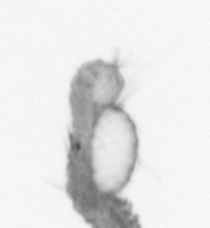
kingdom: Animalia
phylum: Annelida
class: Polychaeta
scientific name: Polychaeta
